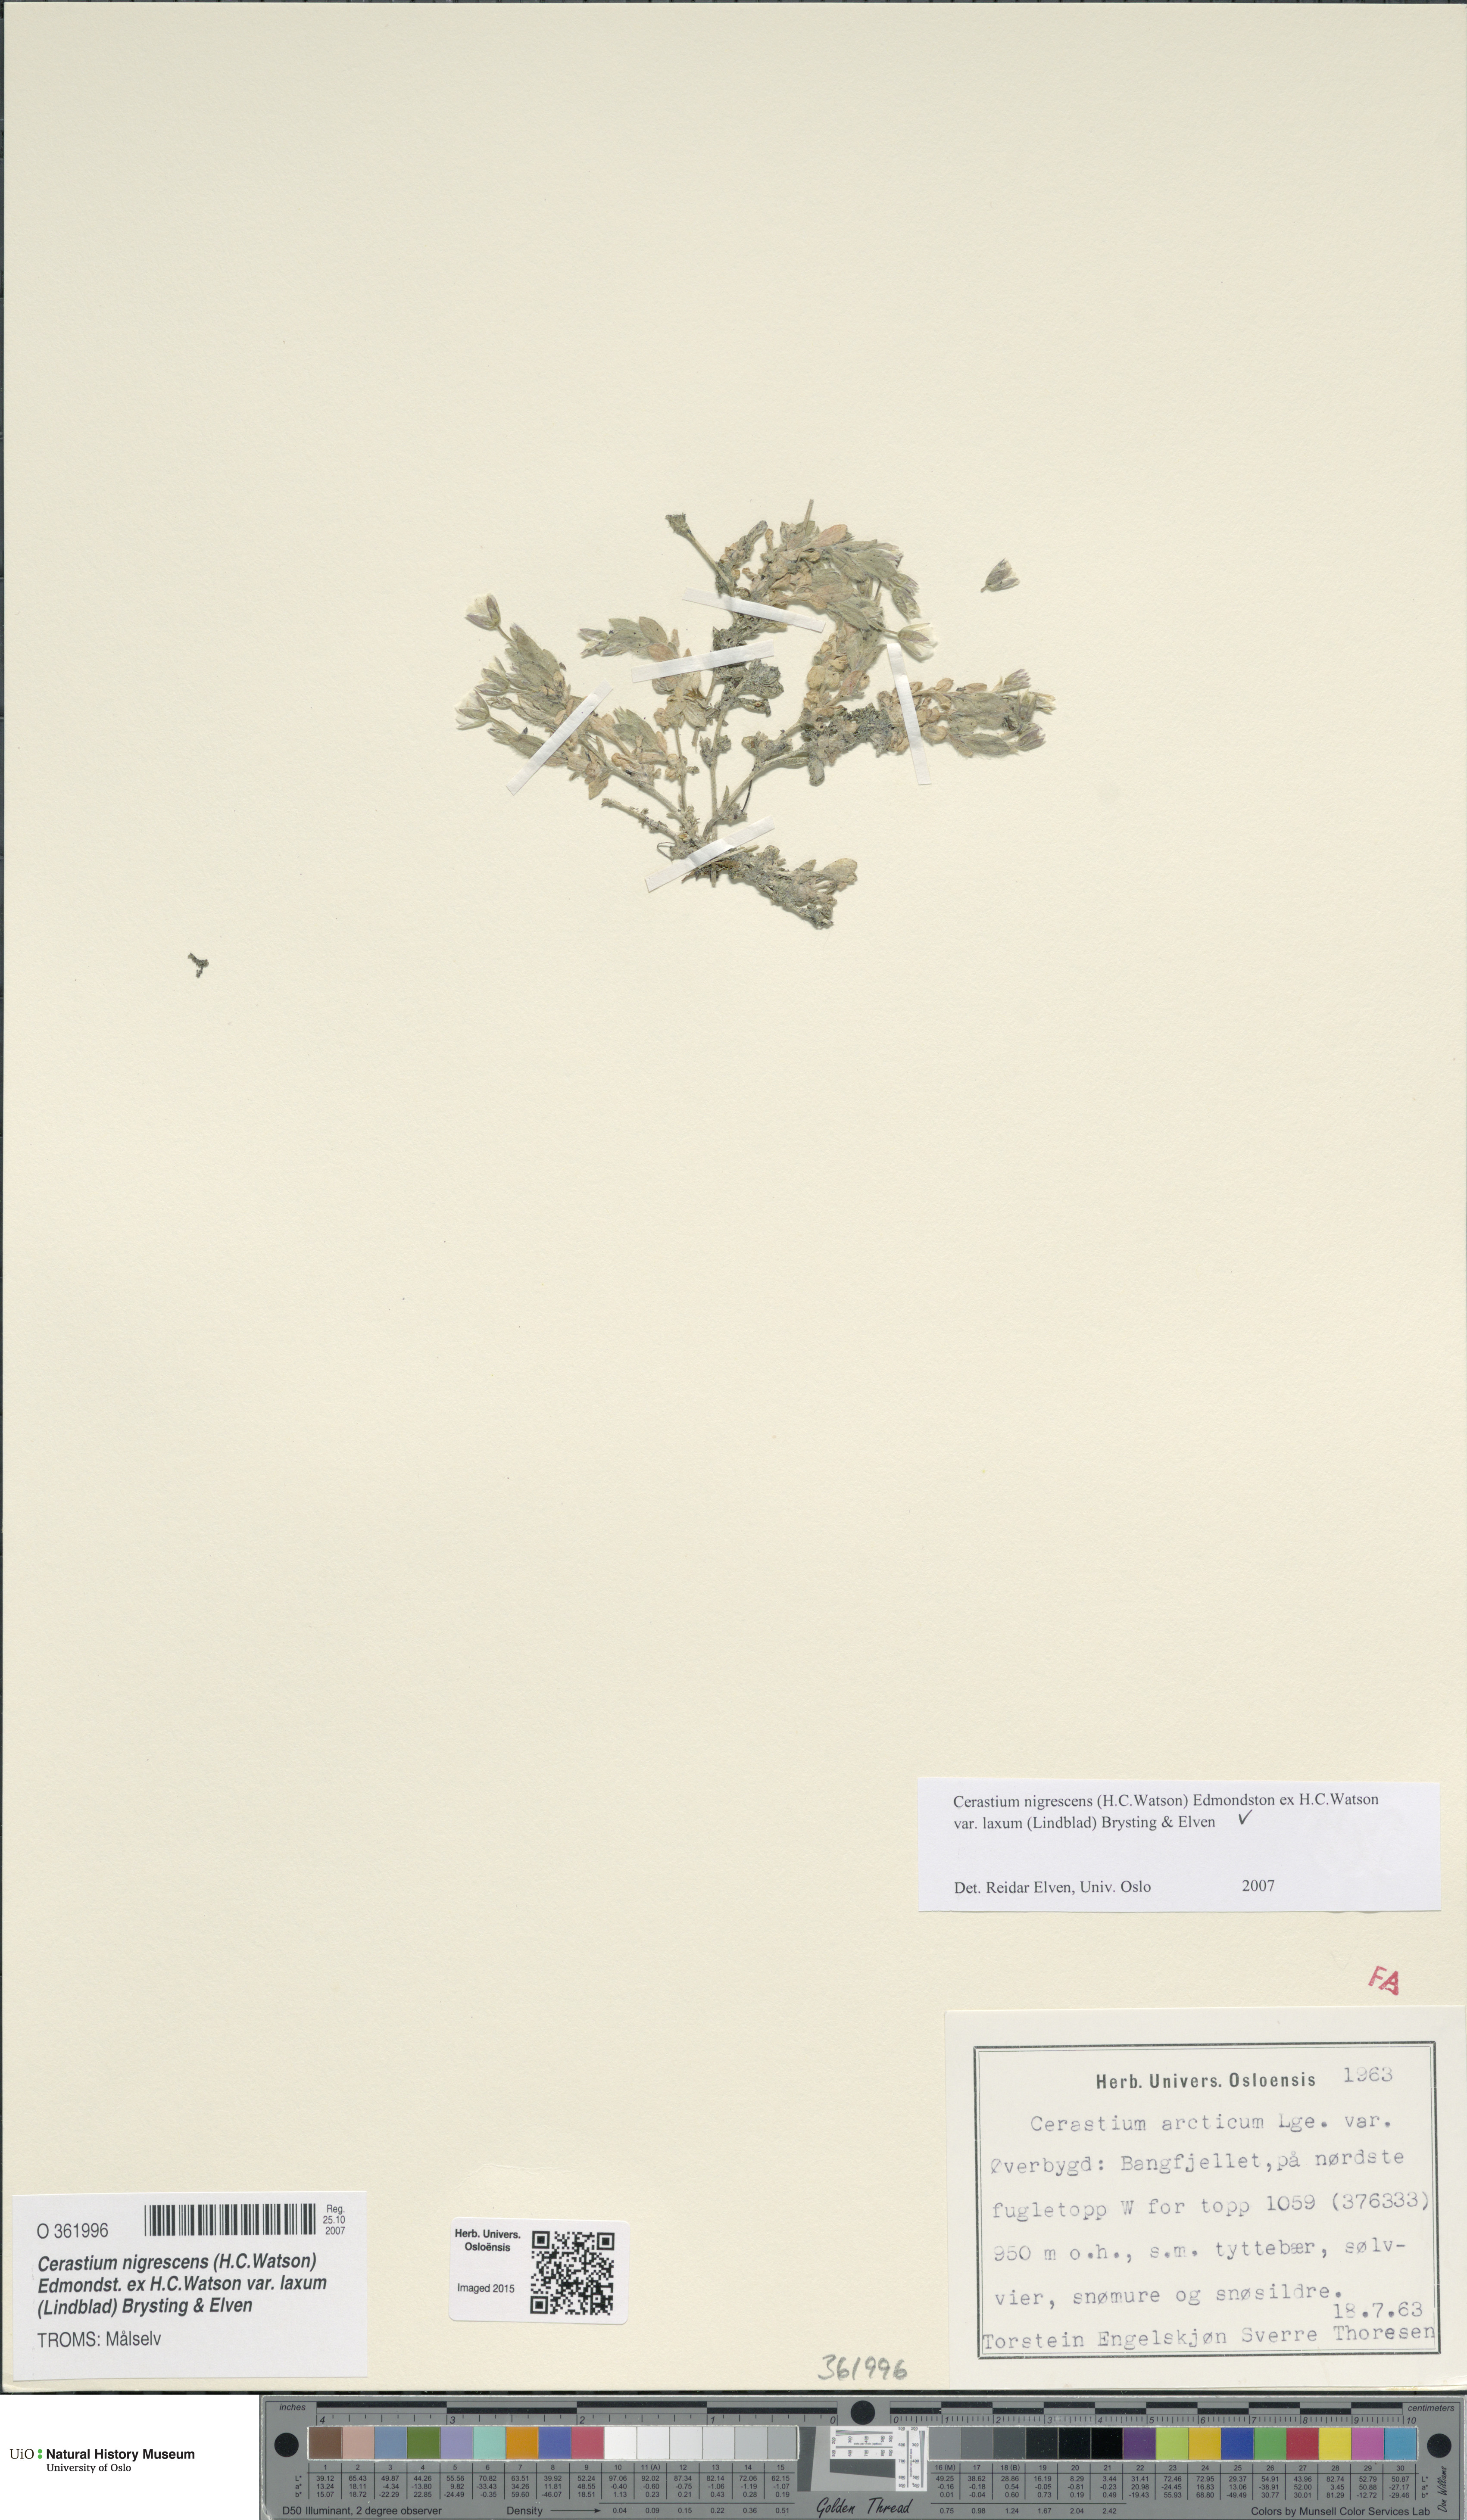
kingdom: Plantae
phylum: Tracheophyta
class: Magnoliopsida
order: Caryophyllales
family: Caryophyllaceae
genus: Cerastium
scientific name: Cerastium nigrescens
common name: Shetland mouse-ear
